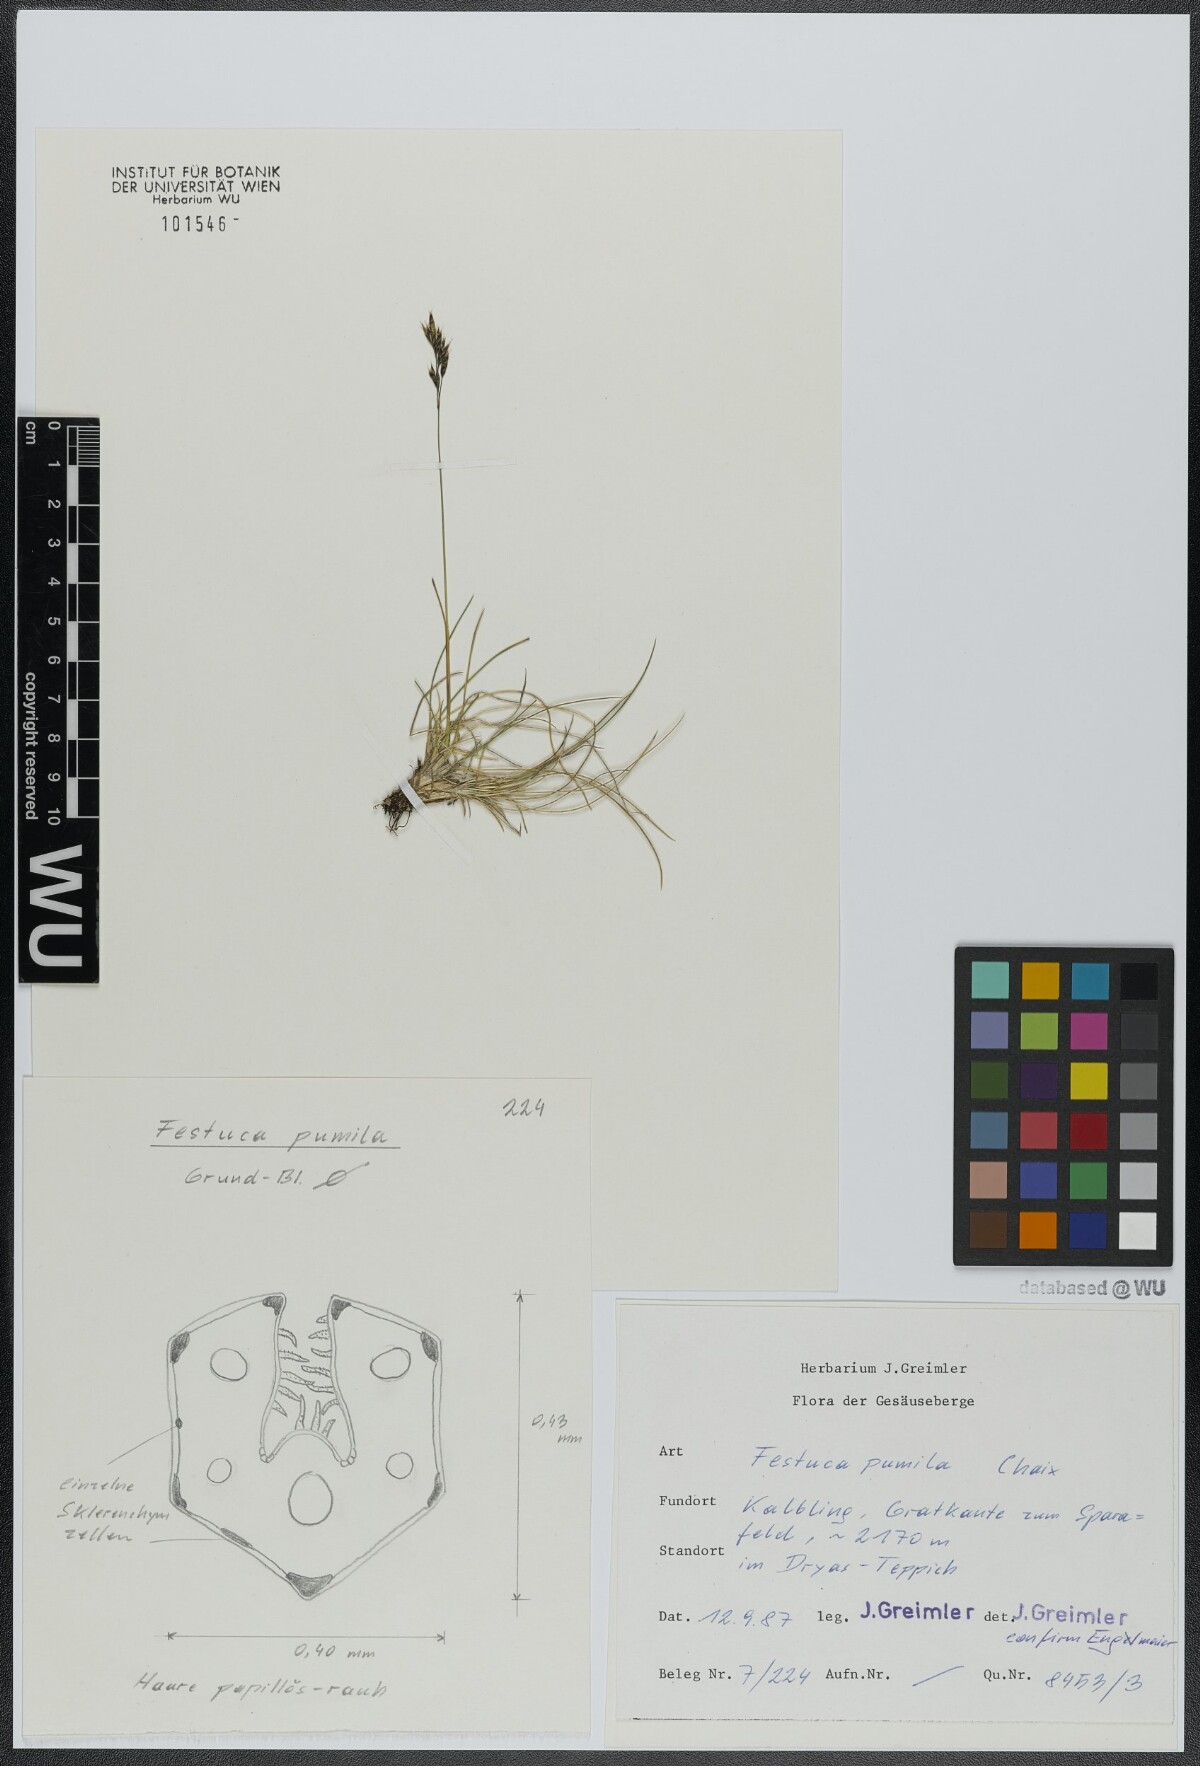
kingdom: Plantae
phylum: Tracheophyta
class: Liliopsida
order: Poales
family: Poaceae
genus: Festuca
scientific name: Festuca quadriflora
